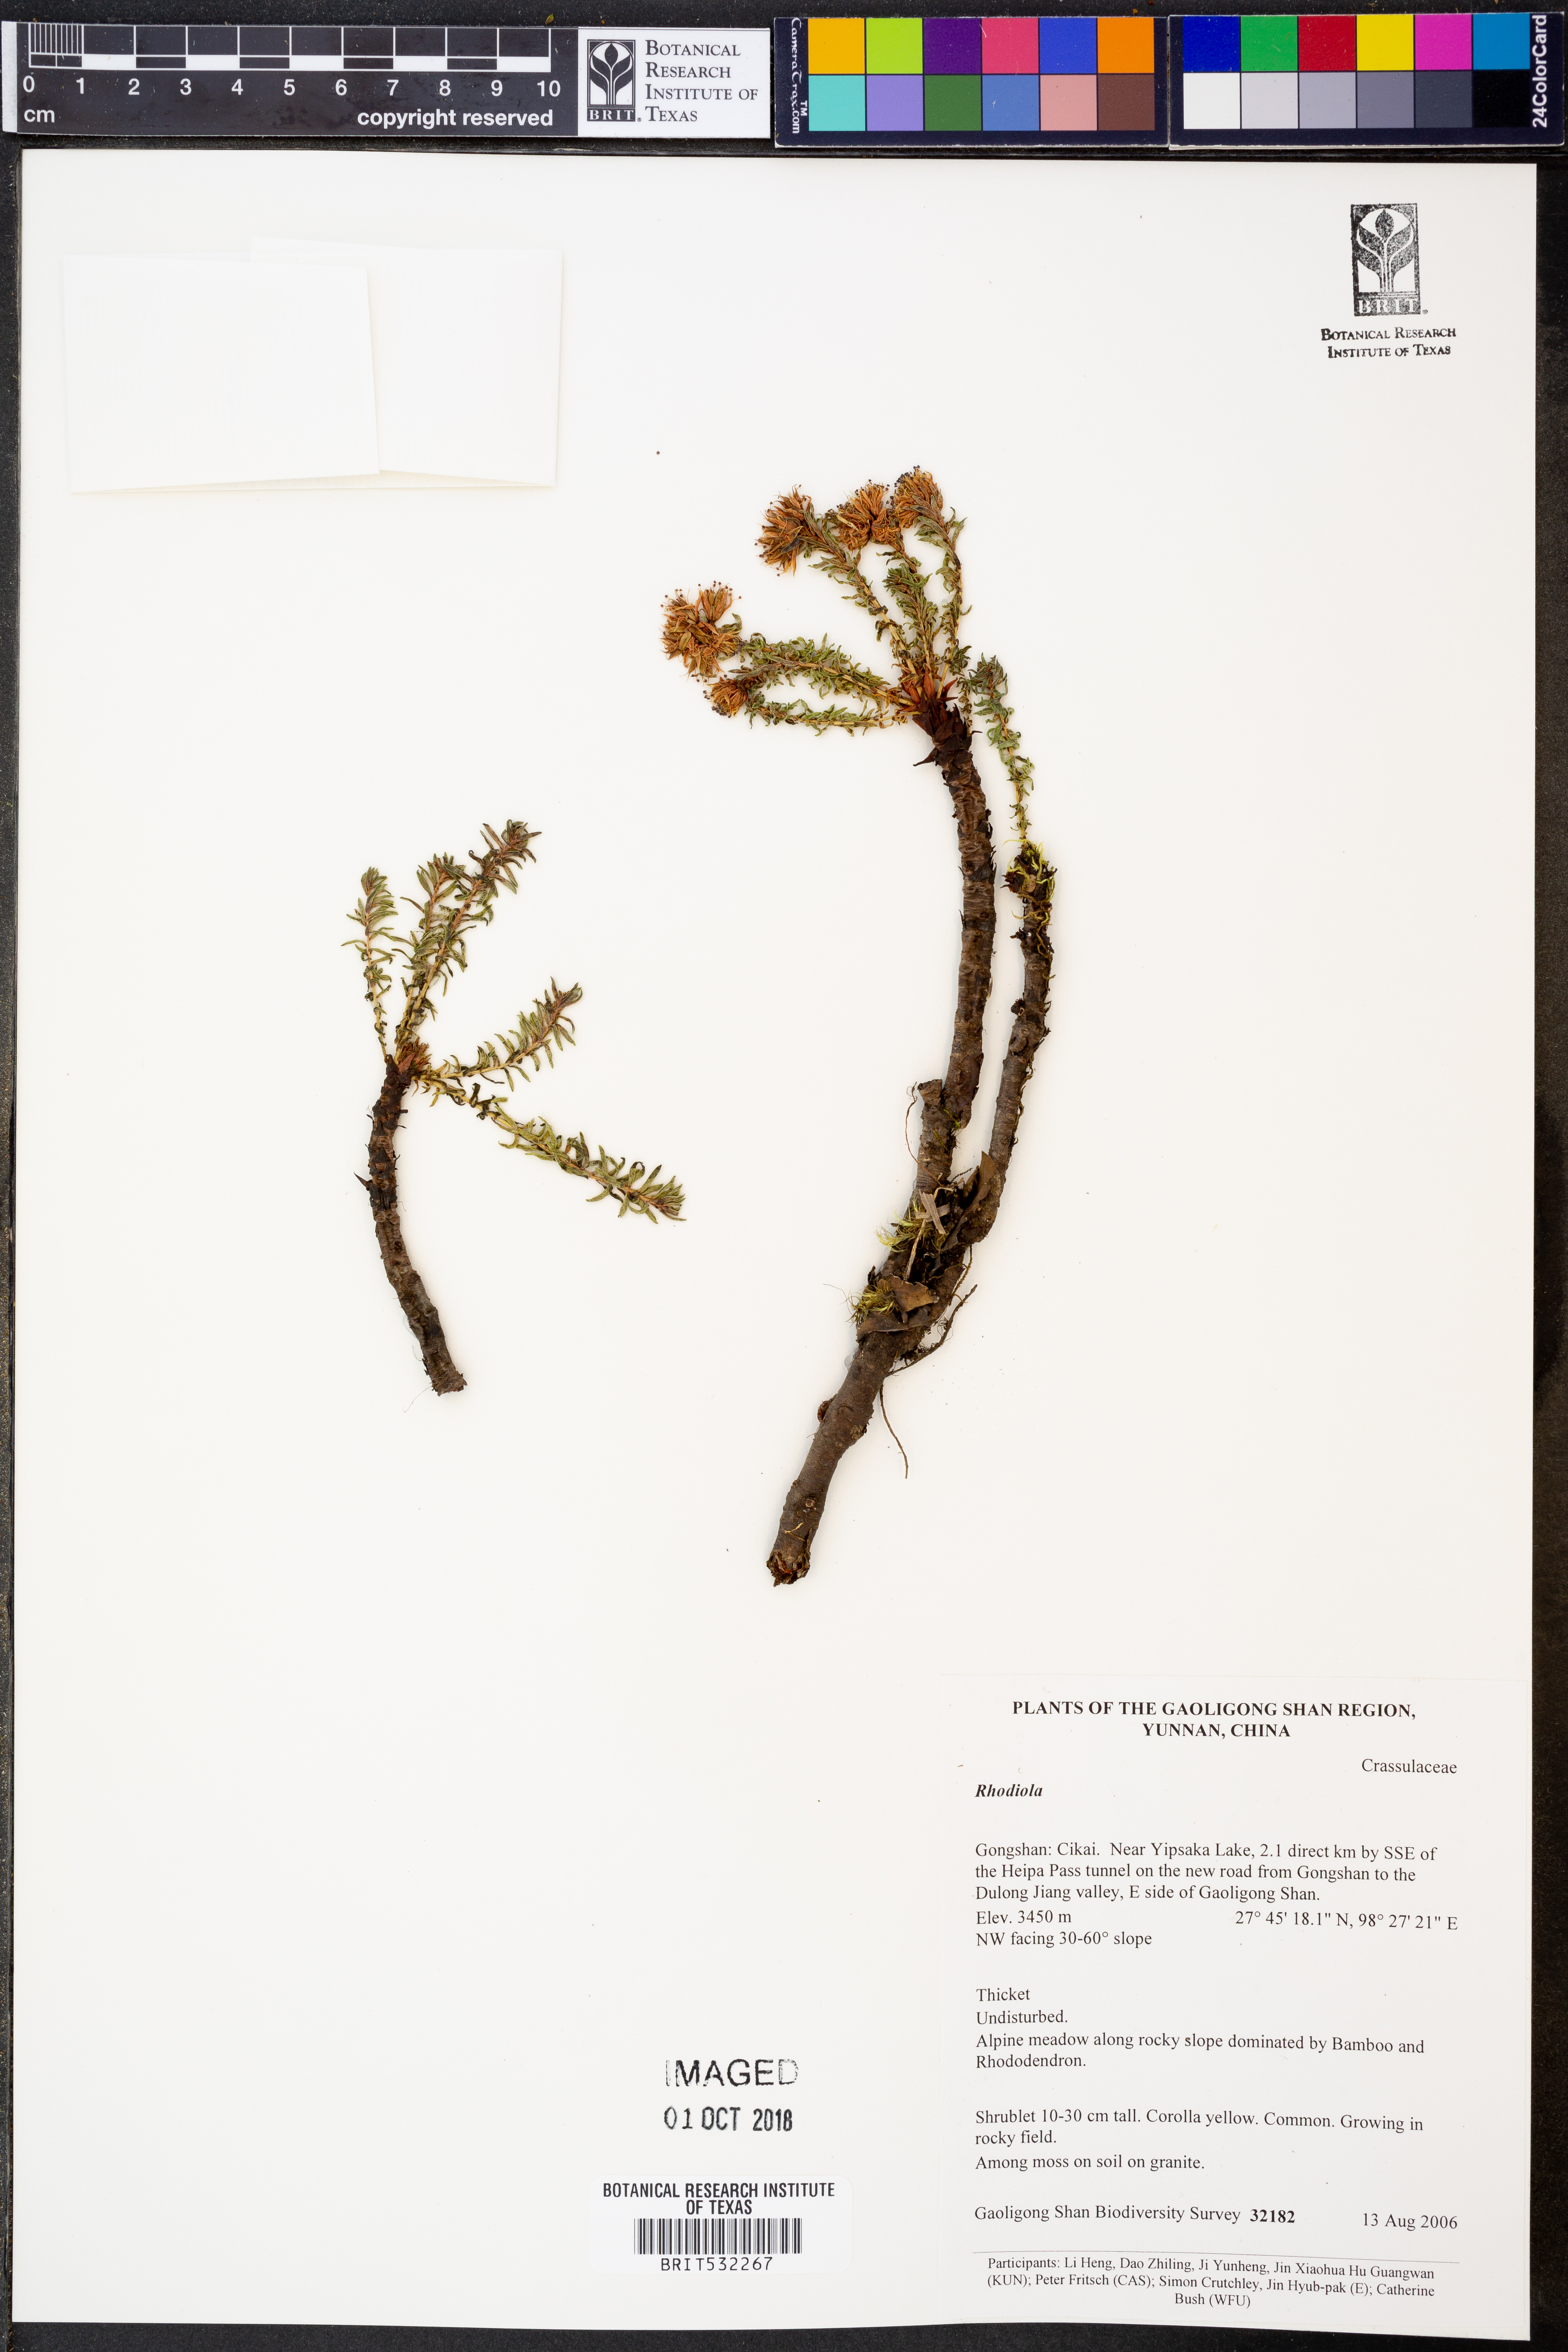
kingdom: Plantae
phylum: Tracheophyta
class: Magnoliopsida
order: Saxifragales
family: Crassulaceae
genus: Rhodiola
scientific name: Rhodiola
